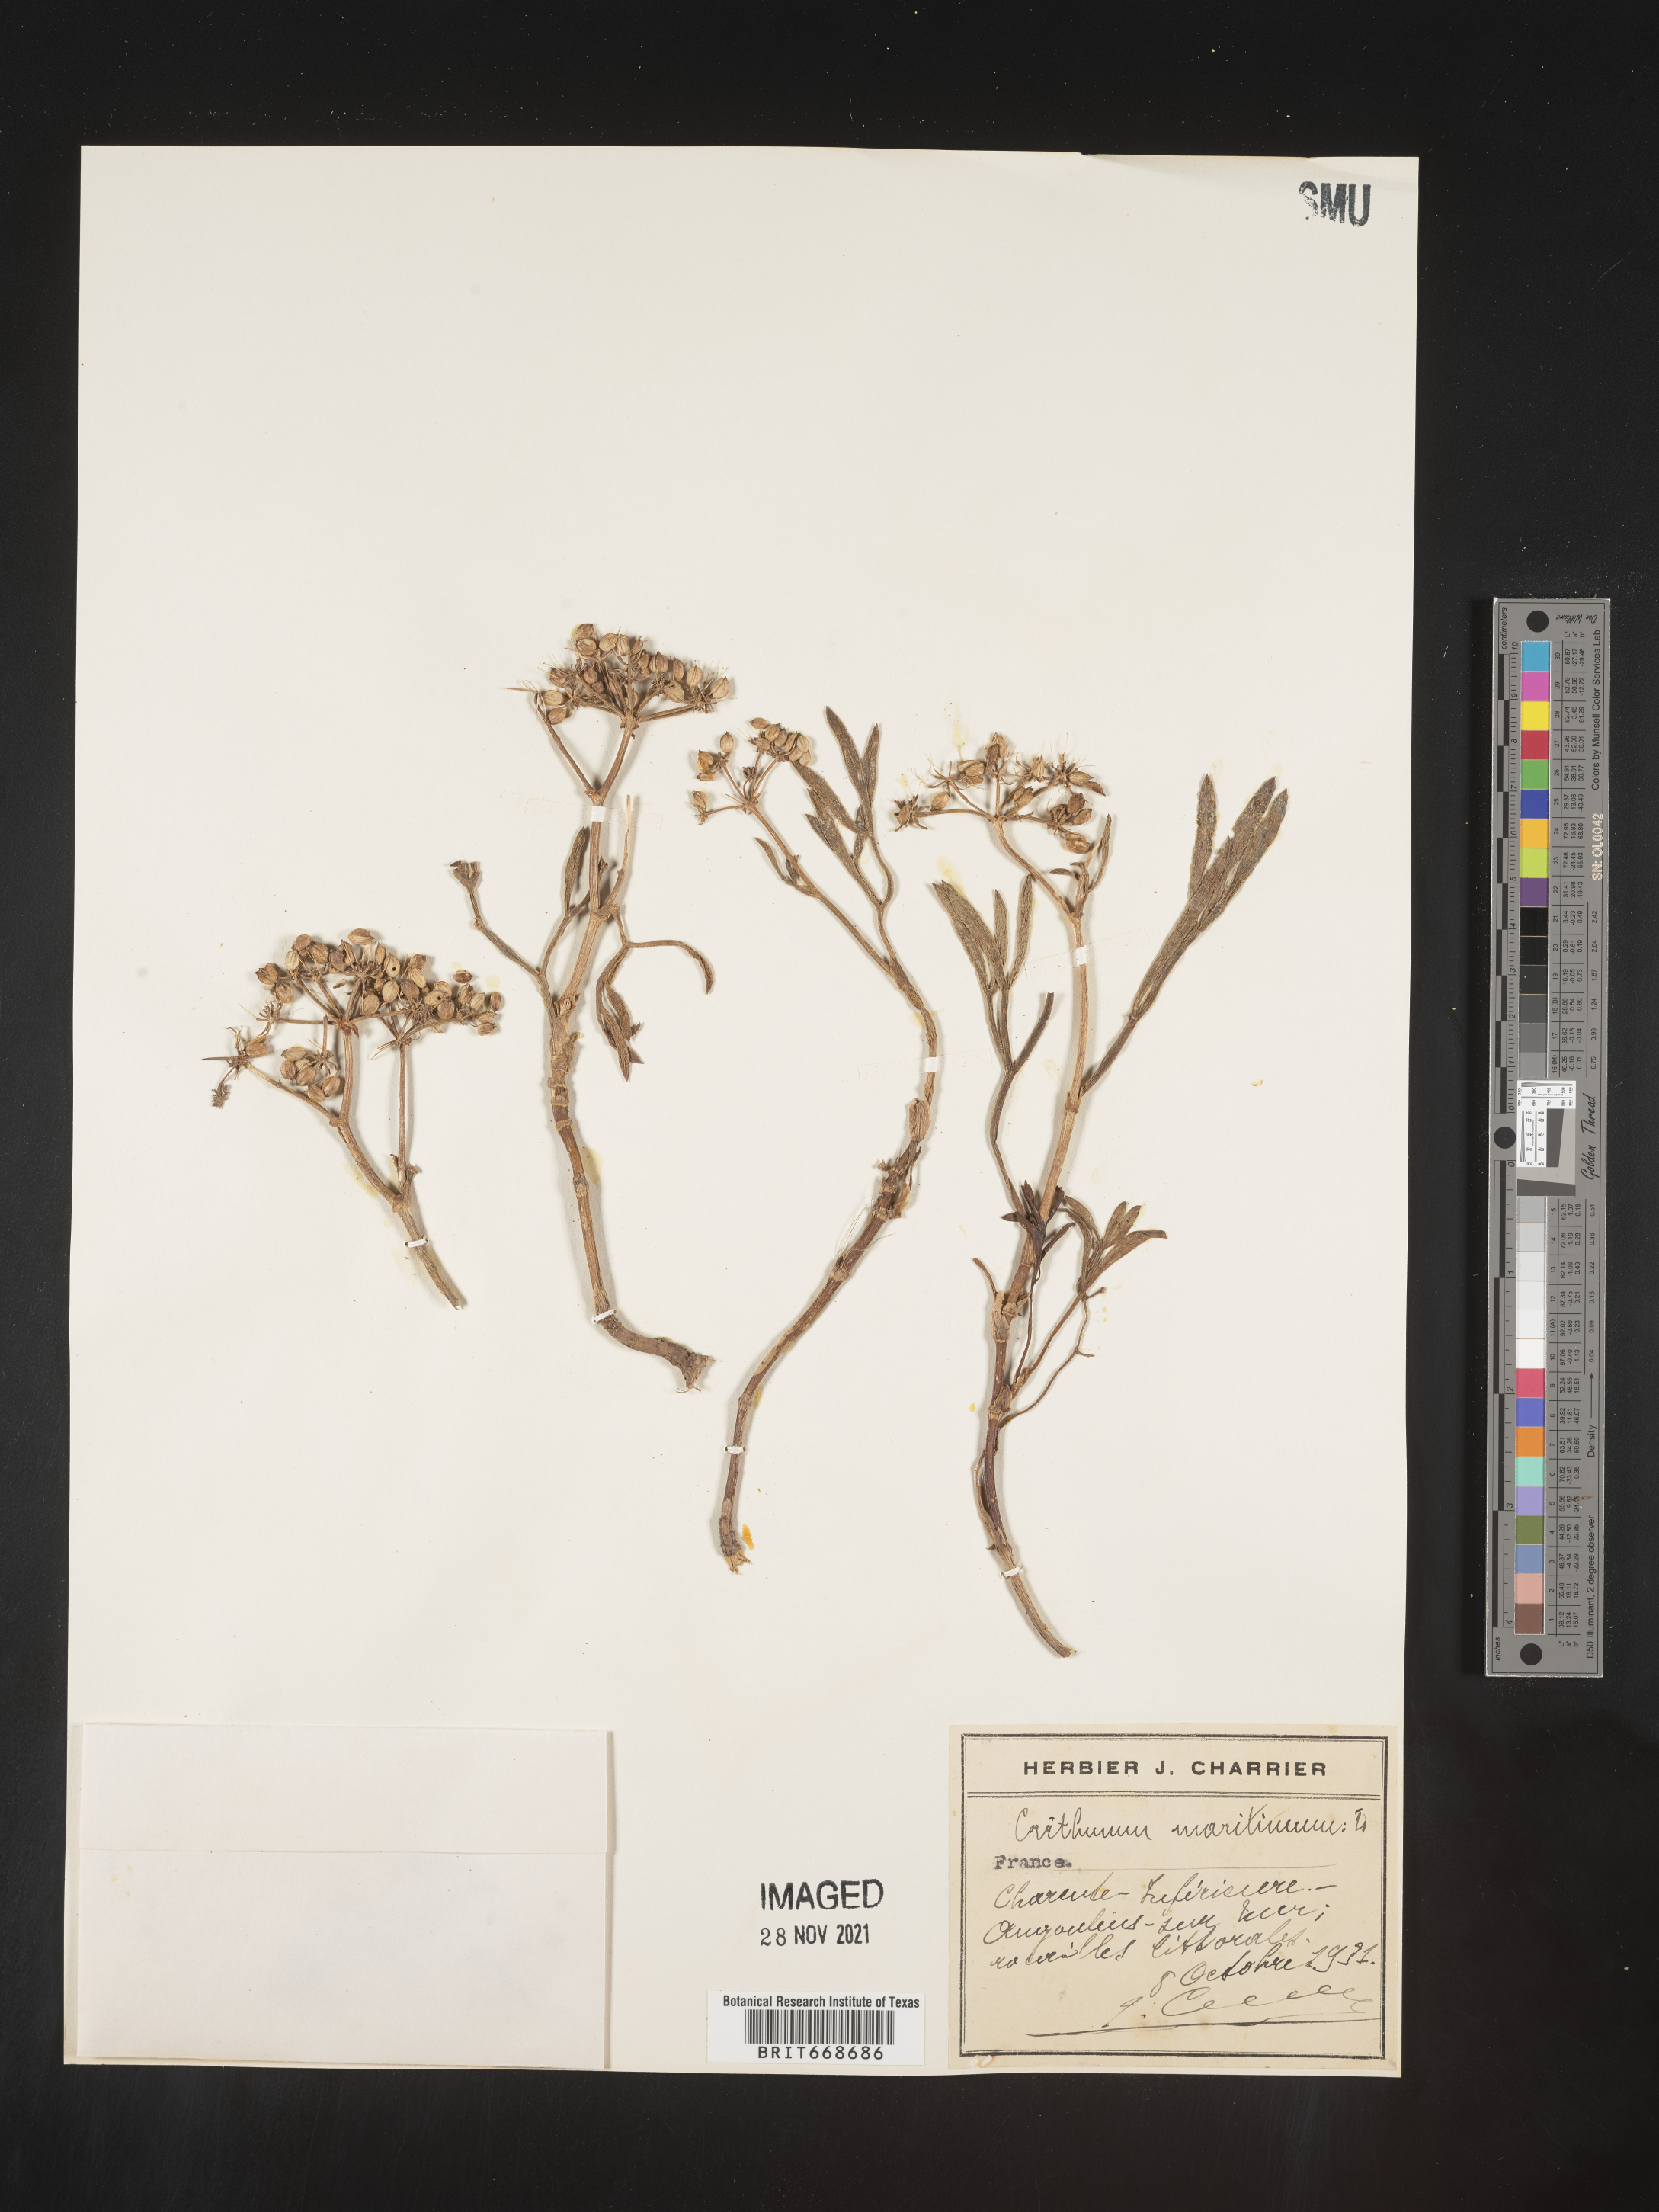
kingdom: Plantae
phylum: Tracheophyta
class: Magnoliopsida
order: Apiales
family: Apiaceae
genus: Crithmum
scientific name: Crithmum
